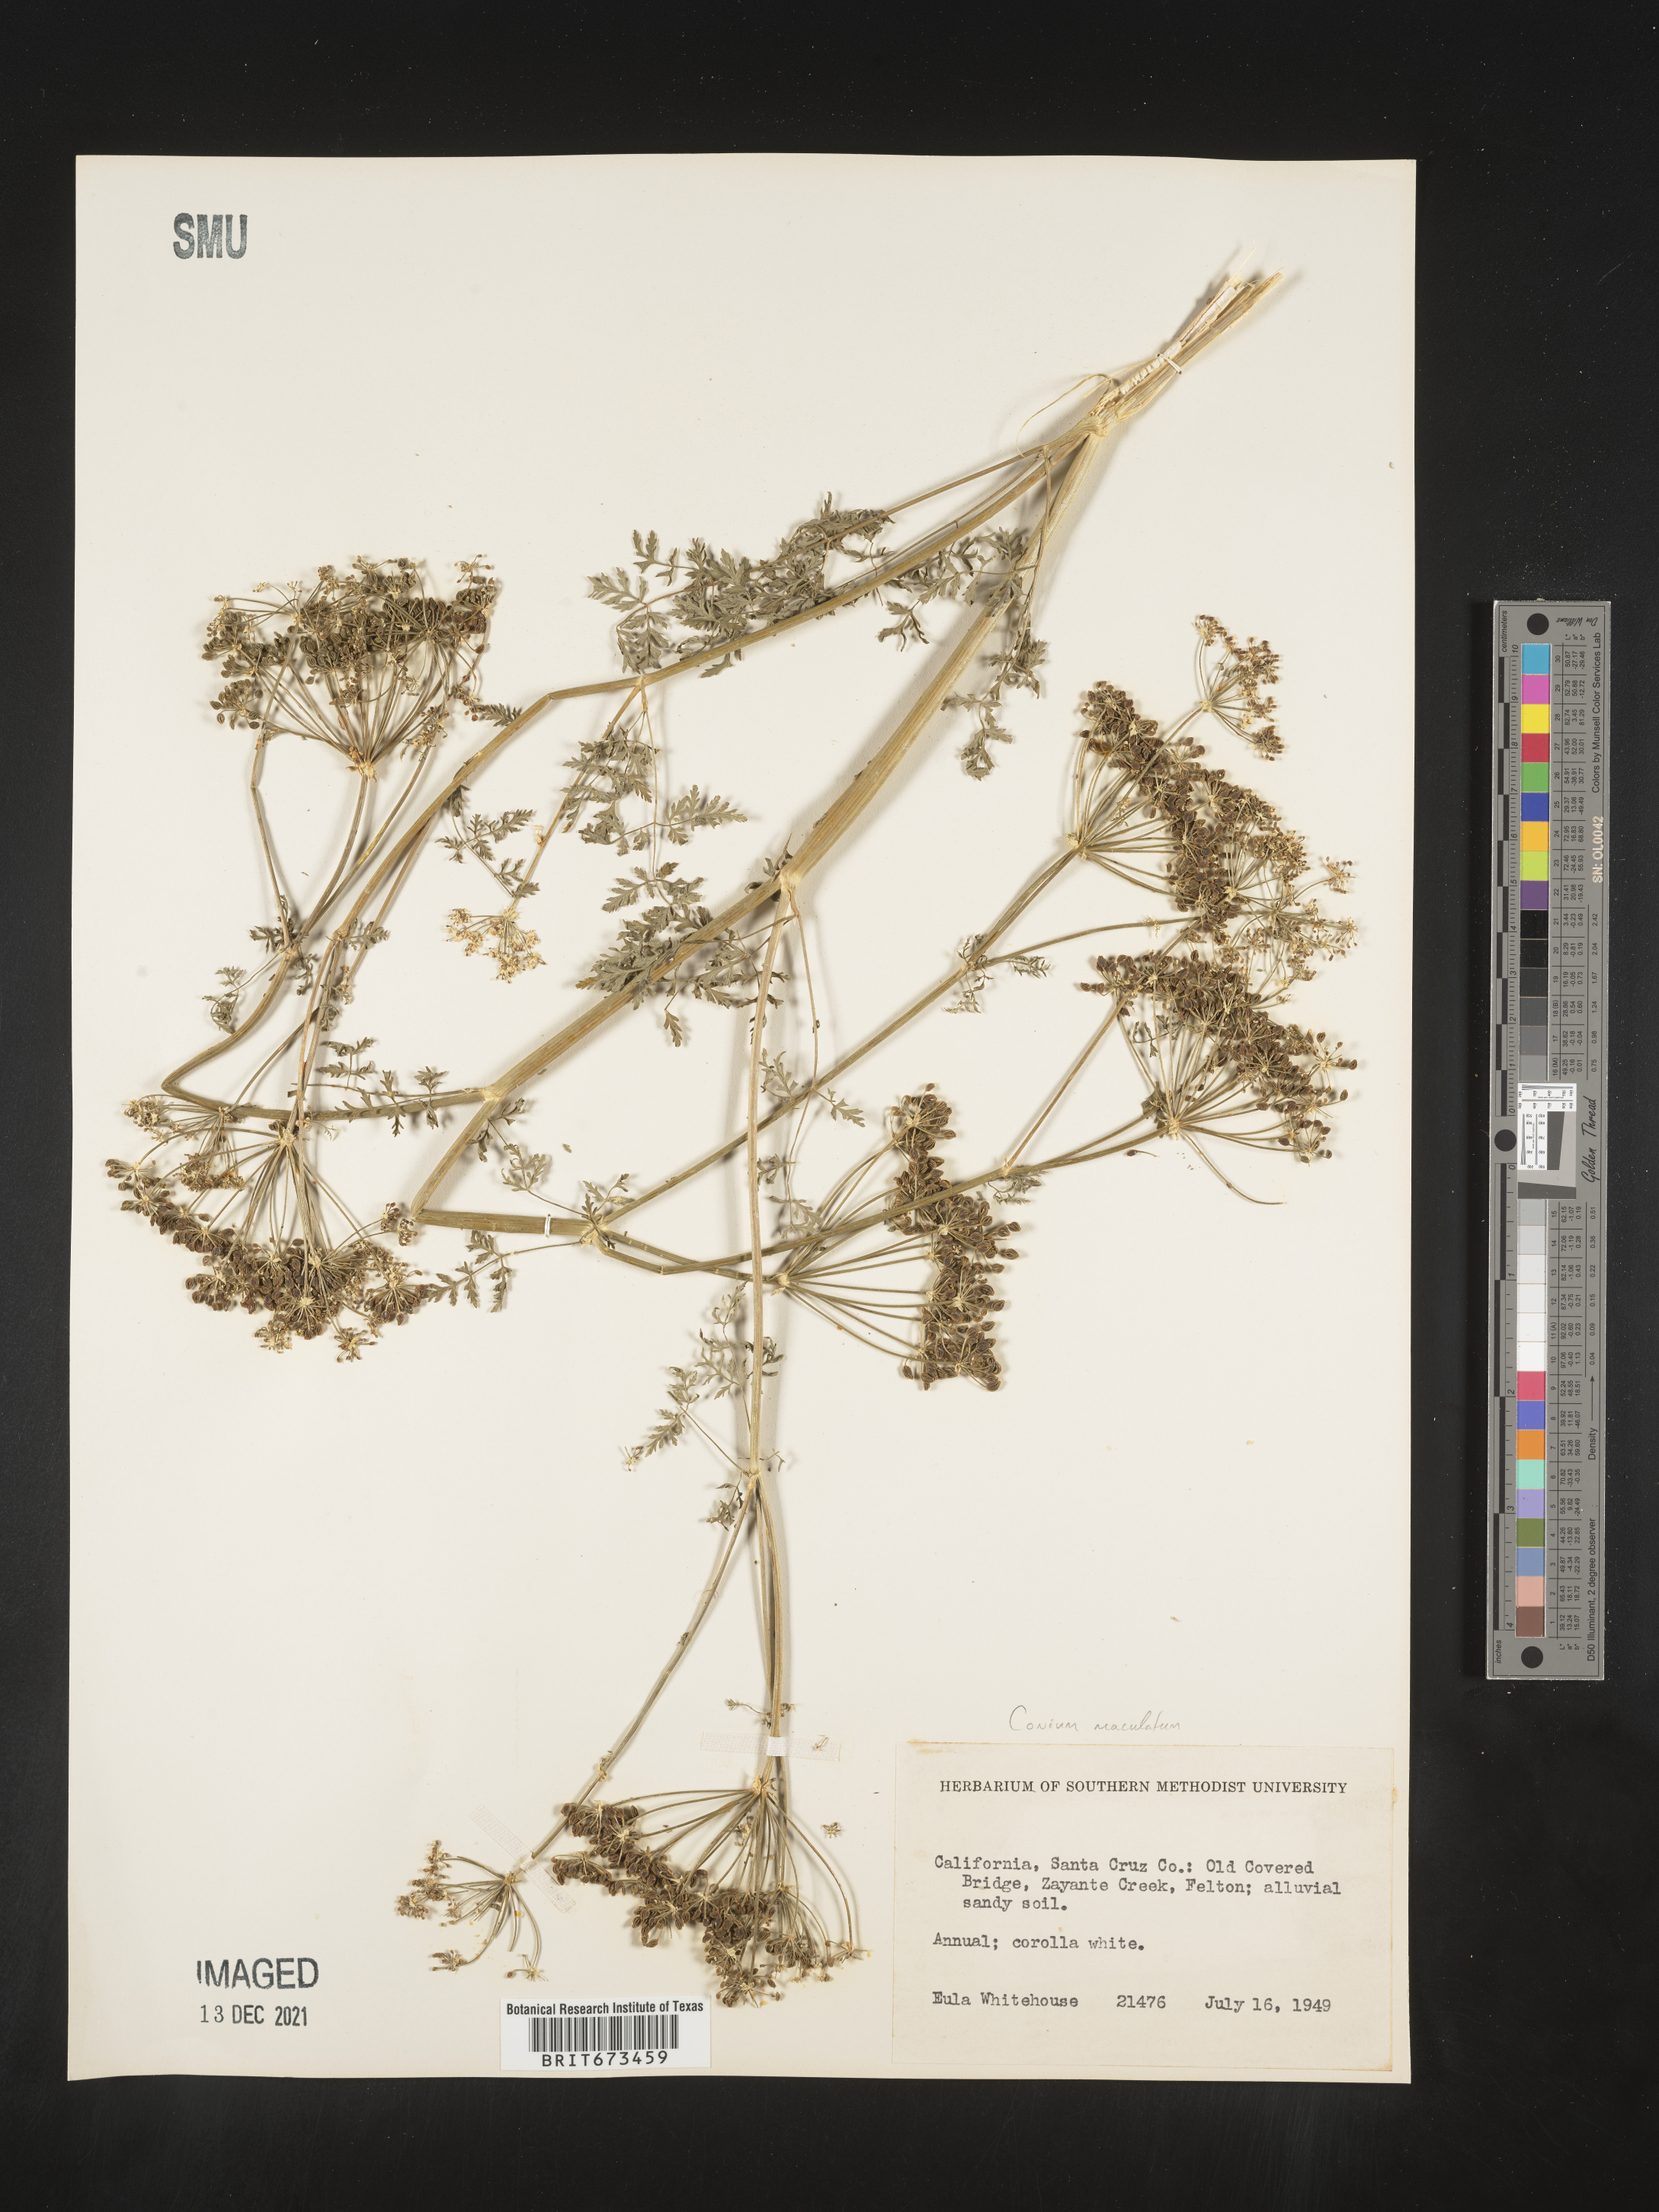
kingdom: Plantae
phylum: Tracheophyta
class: Magnoliopsida
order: Apiales
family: Apiaceae
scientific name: Apiaceae
